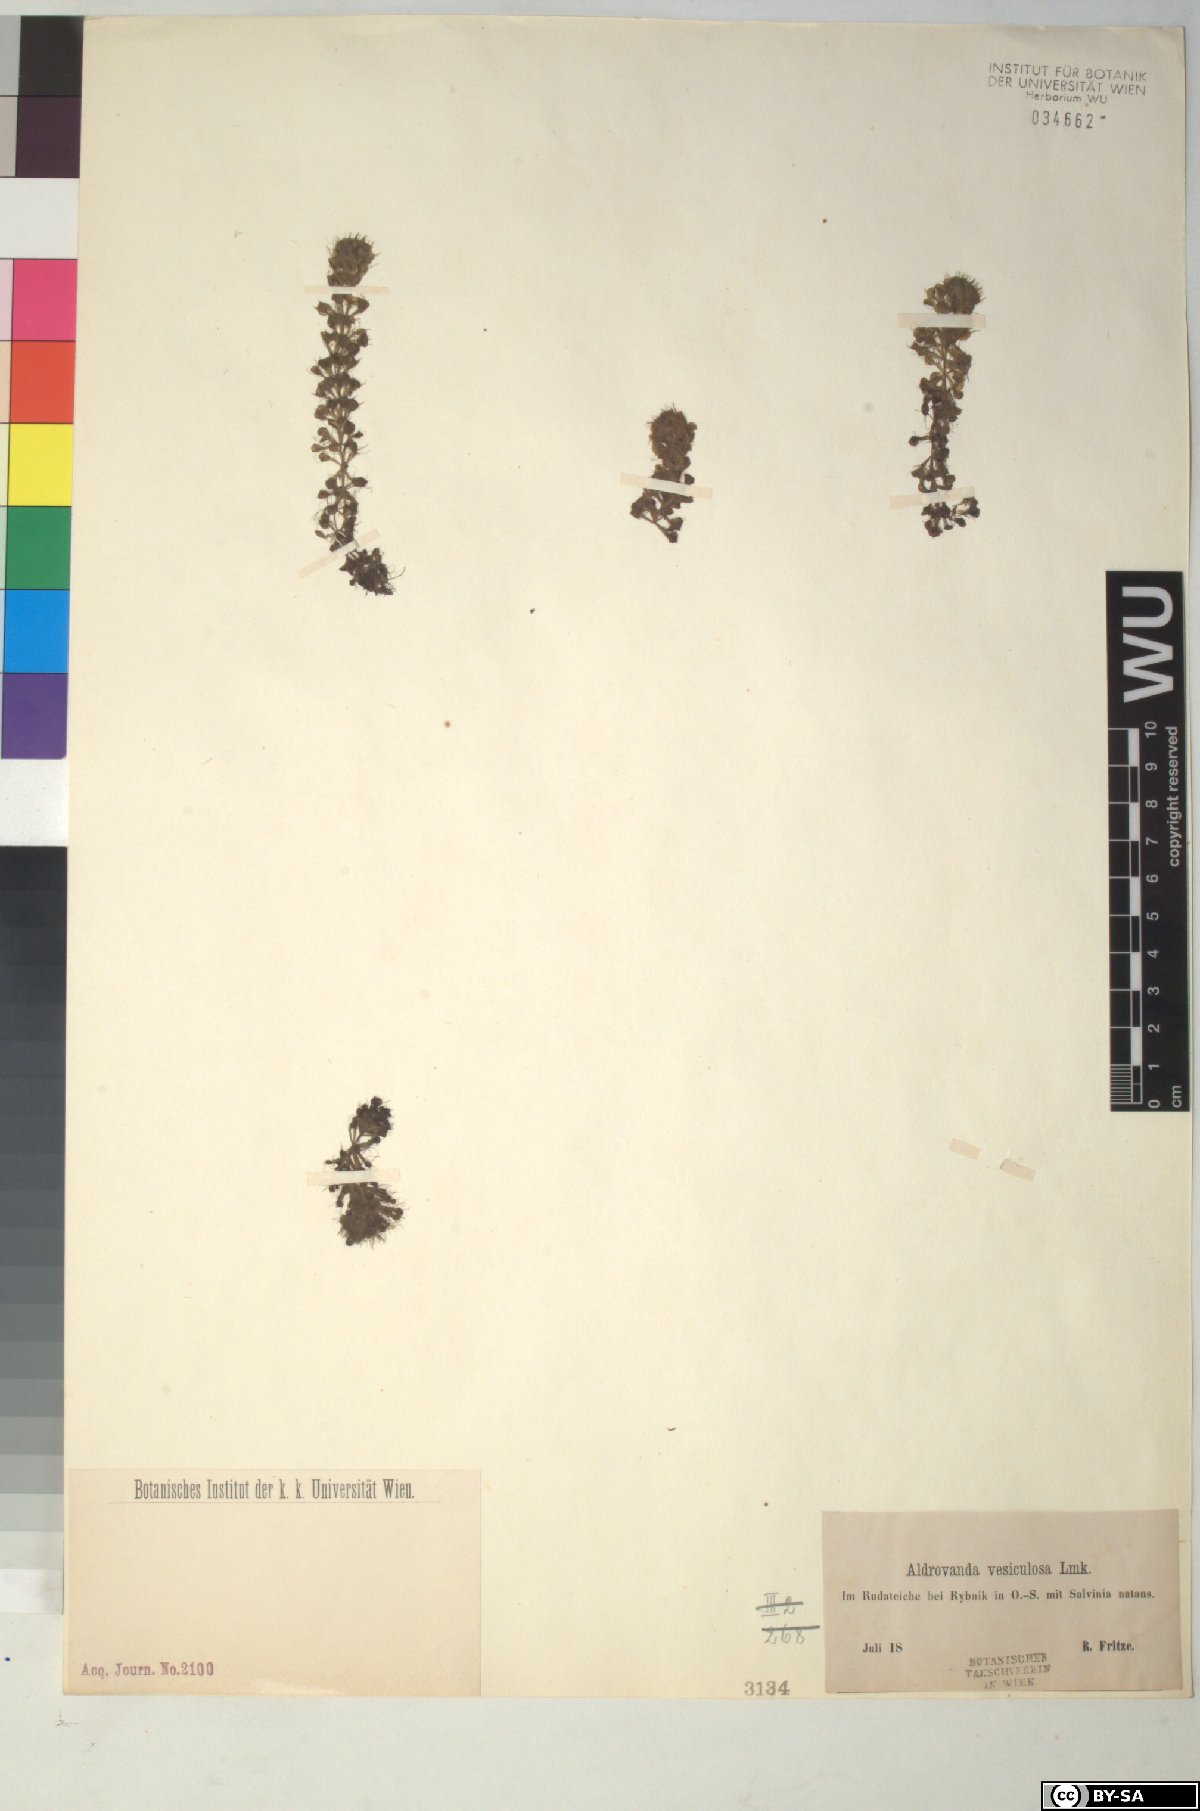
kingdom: Plantae
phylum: Tracheophyta
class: Magnoliopsida
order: Caryophyllales
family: Droseraceae
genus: Aldrovanda
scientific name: Aldrovanda vesiculosa
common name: Waterwheel plant
